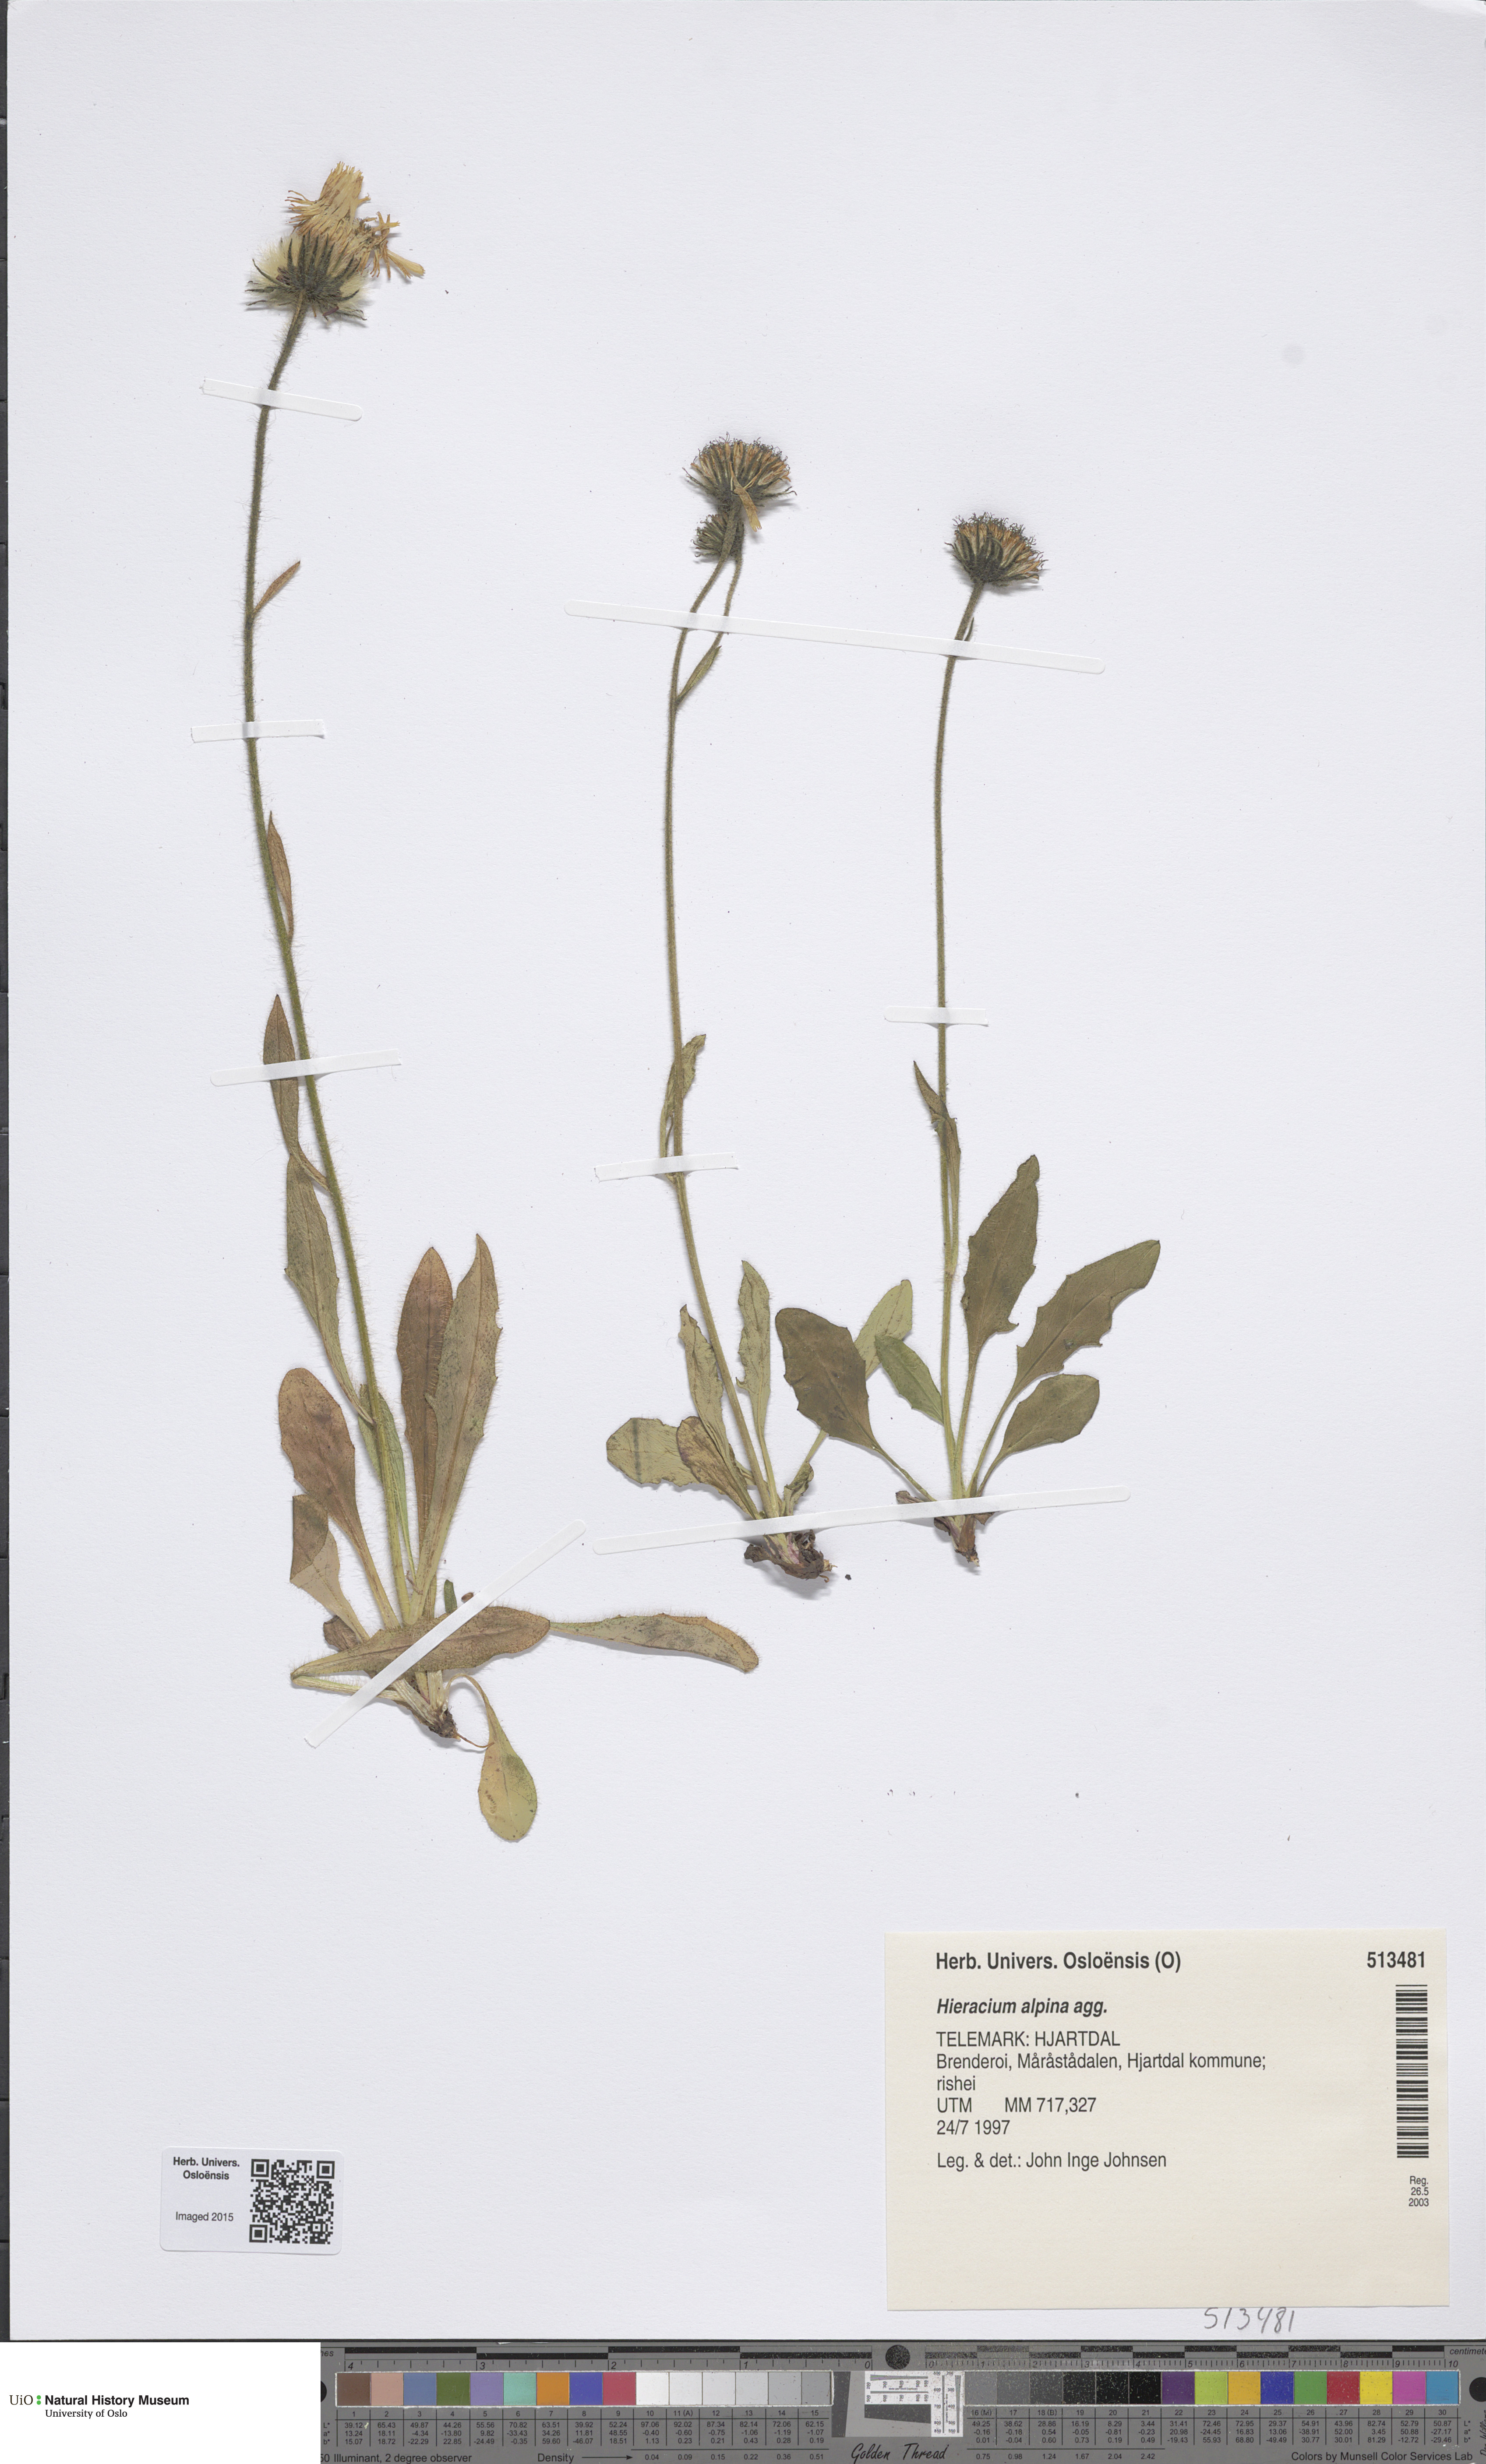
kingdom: Plantae
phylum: Tracheophyta
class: Magnoliopsida
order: Asterales
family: Asteraceae
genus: Hieracium
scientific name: Hieracium alpinum
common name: Alpine hawkweed
